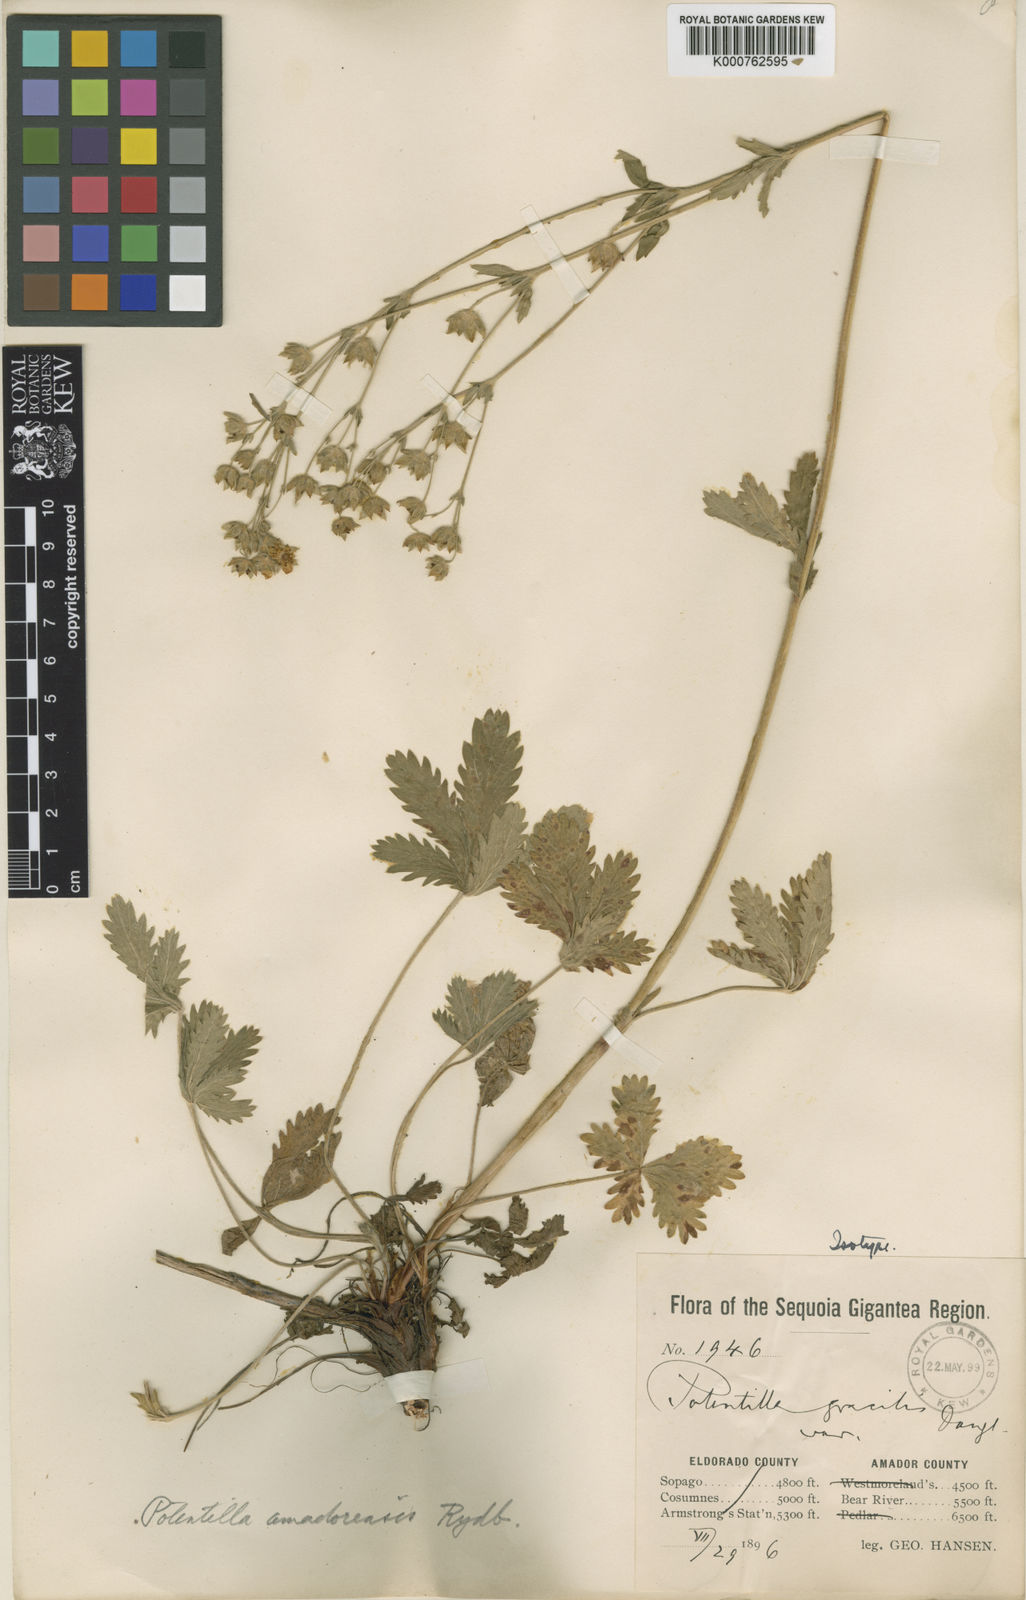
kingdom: Plantae
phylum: Tracheophyta
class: Magnoliopsida
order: Rosales
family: Rosaceae
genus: Potentilla
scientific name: Potentilla gracilis
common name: Graceful cinquefoil
